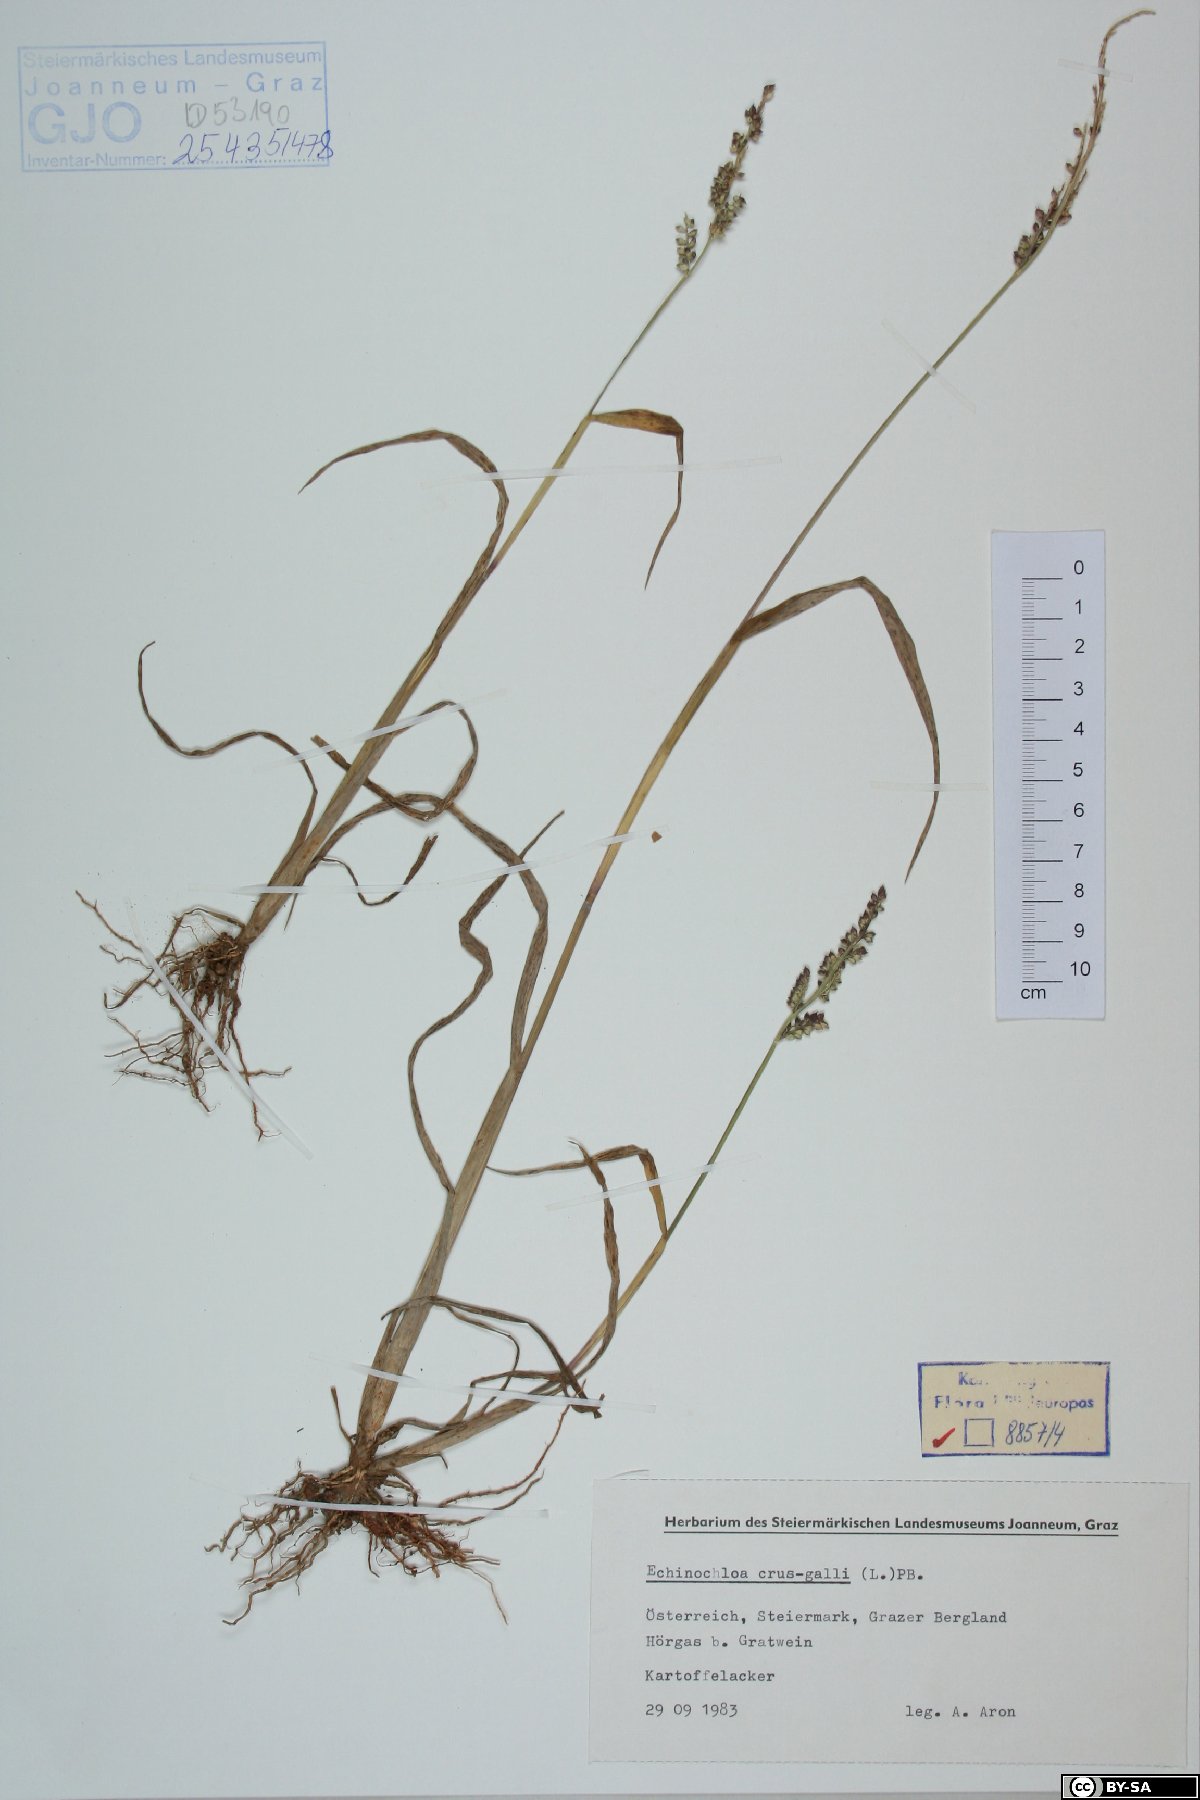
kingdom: Plantae
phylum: Tracheophyta
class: Liliopsida
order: Poales
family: Poaceae
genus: Echinochloa
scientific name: Echinochloa crus-galli
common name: Cockspur
